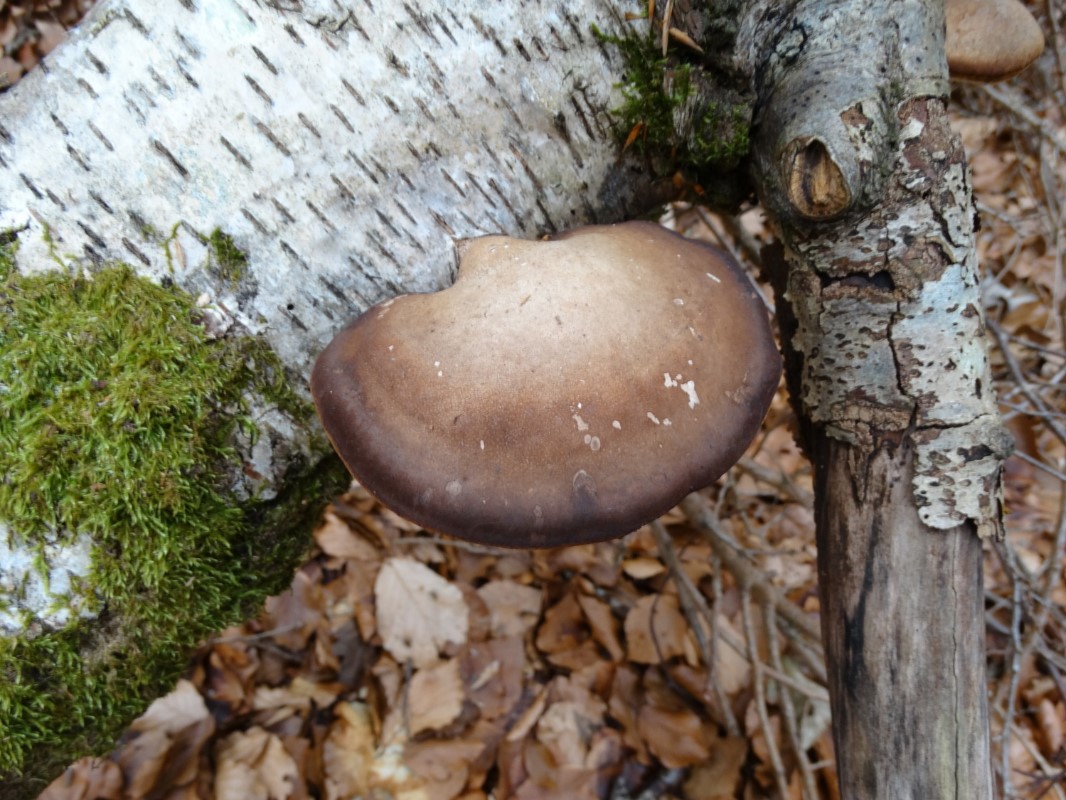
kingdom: Fungi
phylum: Basidiomycota
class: Agaricomycetes
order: Polyporales
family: Fomitopsidaceae
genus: Fomitopsis
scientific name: Fomitopsis betulina
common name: birkeporesvamp
